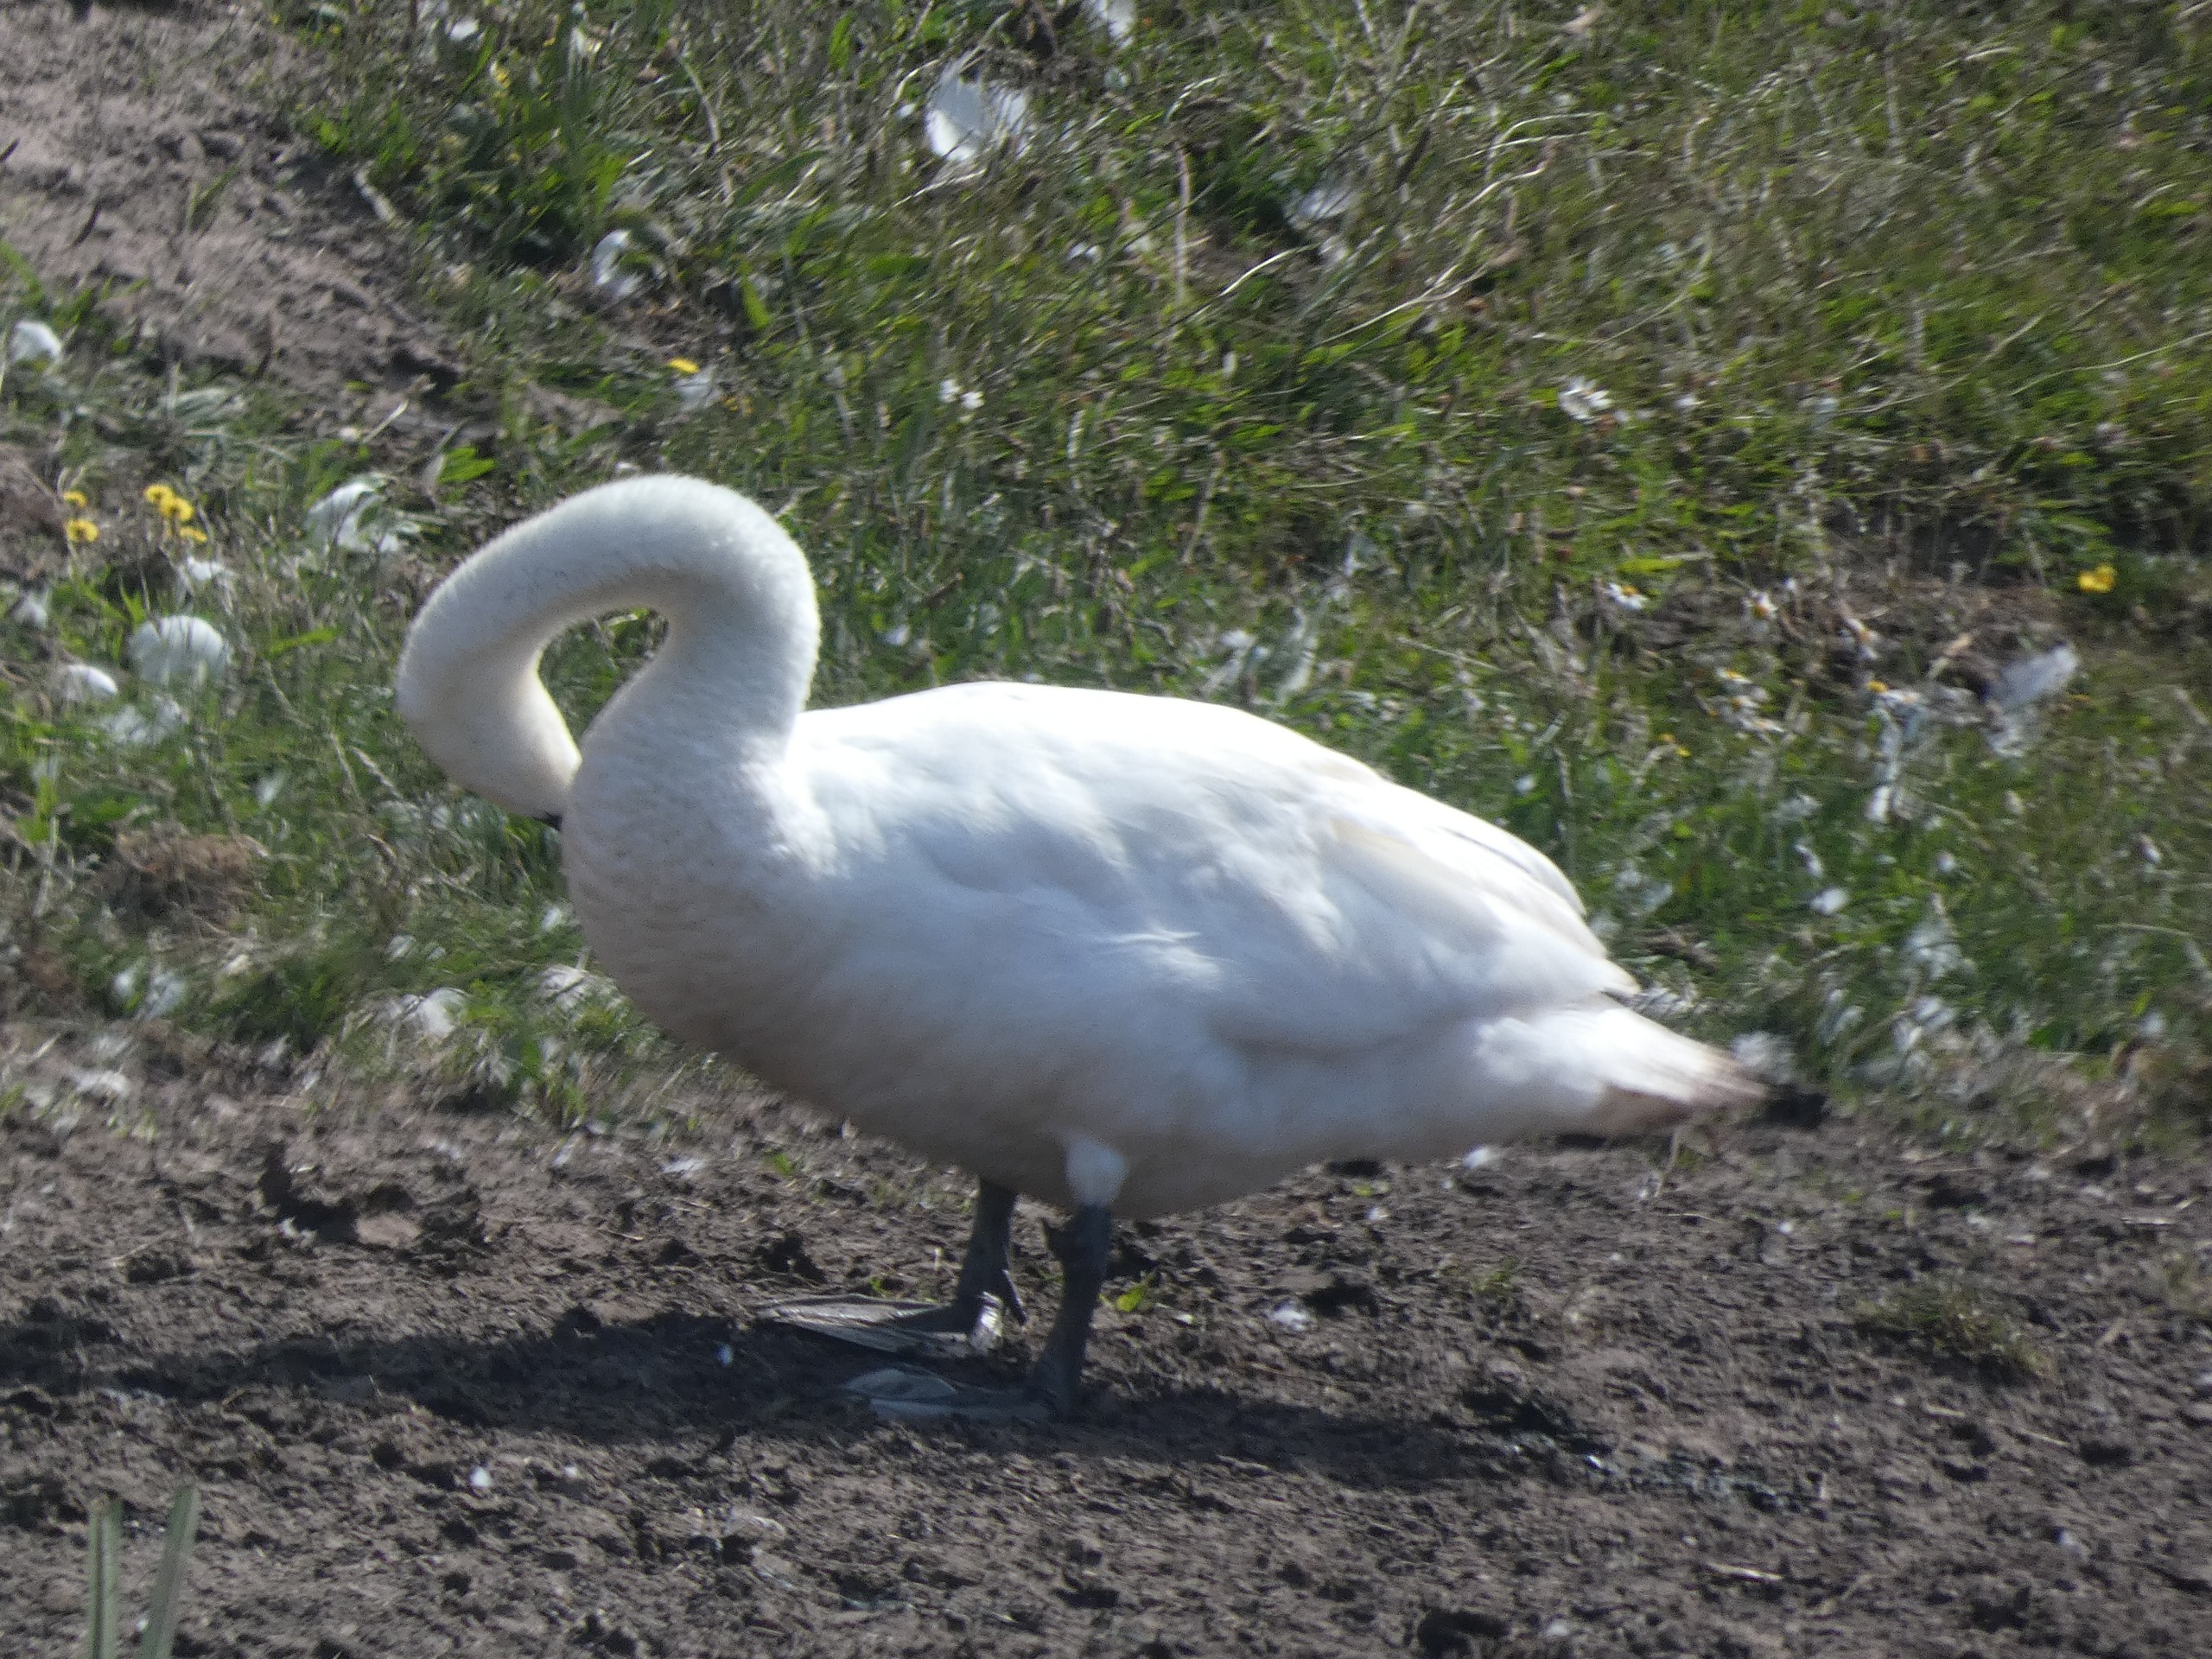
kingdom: Animalia
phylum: Chordata
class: Aves
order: Anseriformes
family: Anatidae
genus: Cygnus
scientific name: Cygnus olor
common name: Knopsvane
